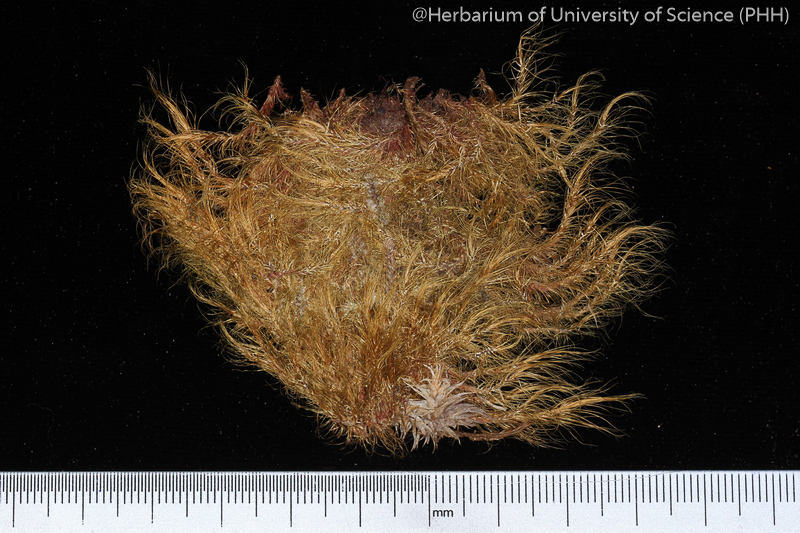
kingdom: Plantae
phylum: Bryophyta
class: Bryopsida
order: Dicranales
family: Dicranaceae
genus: Leucoloma
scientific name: Leucoloma
